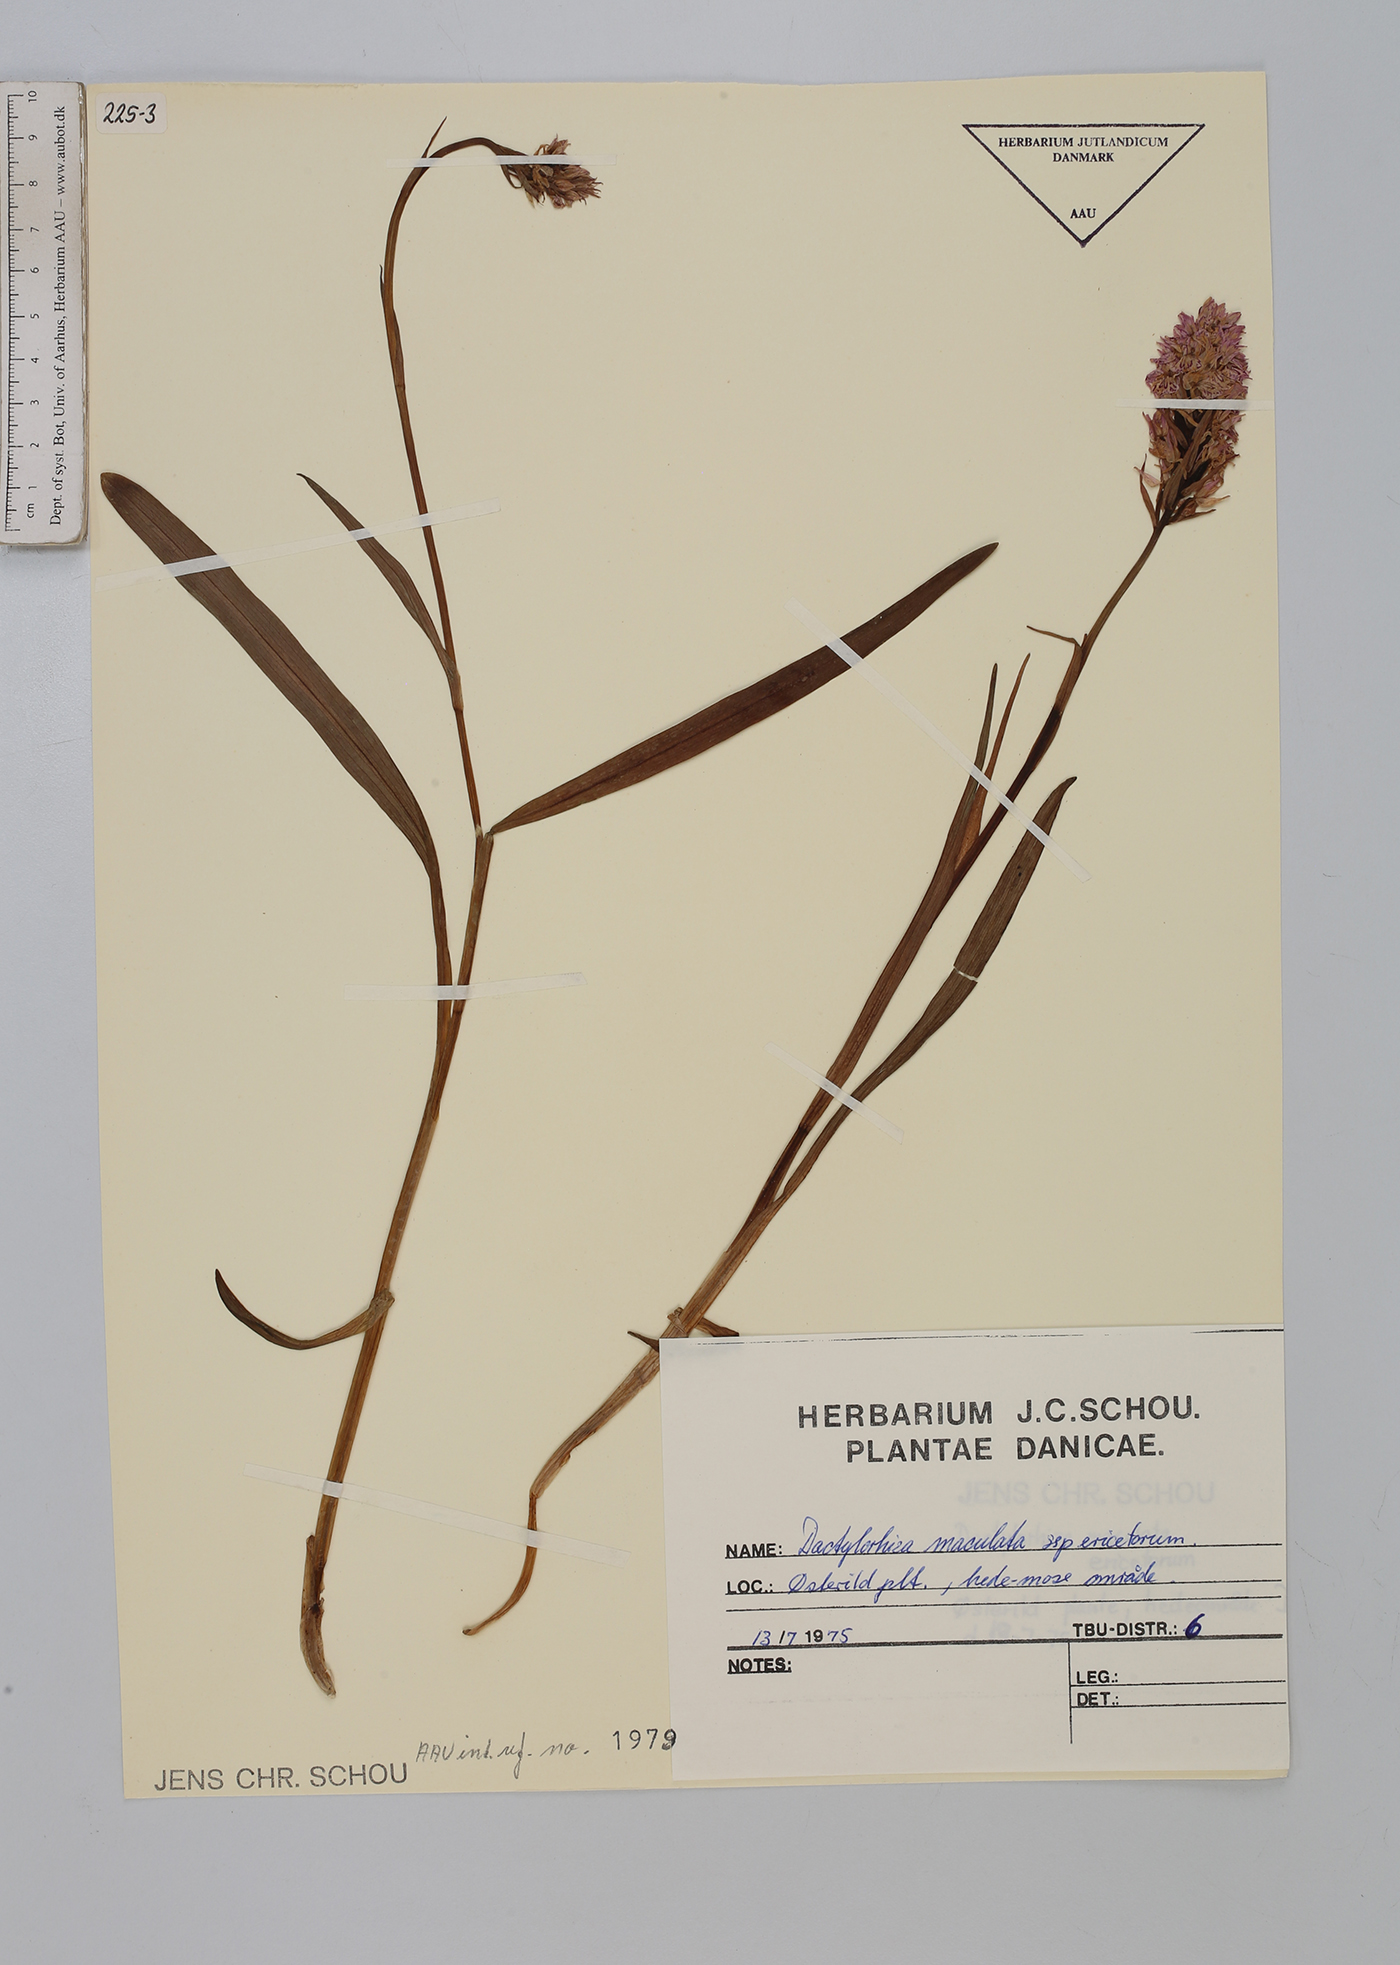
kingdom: Plantae
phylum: Tracheophyta
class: Liliopsida
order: Asparagales
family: Orchidaceae
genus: Dactylorhiza
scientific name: Dactylorhiza maculata
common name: Heath spotted-orchid
